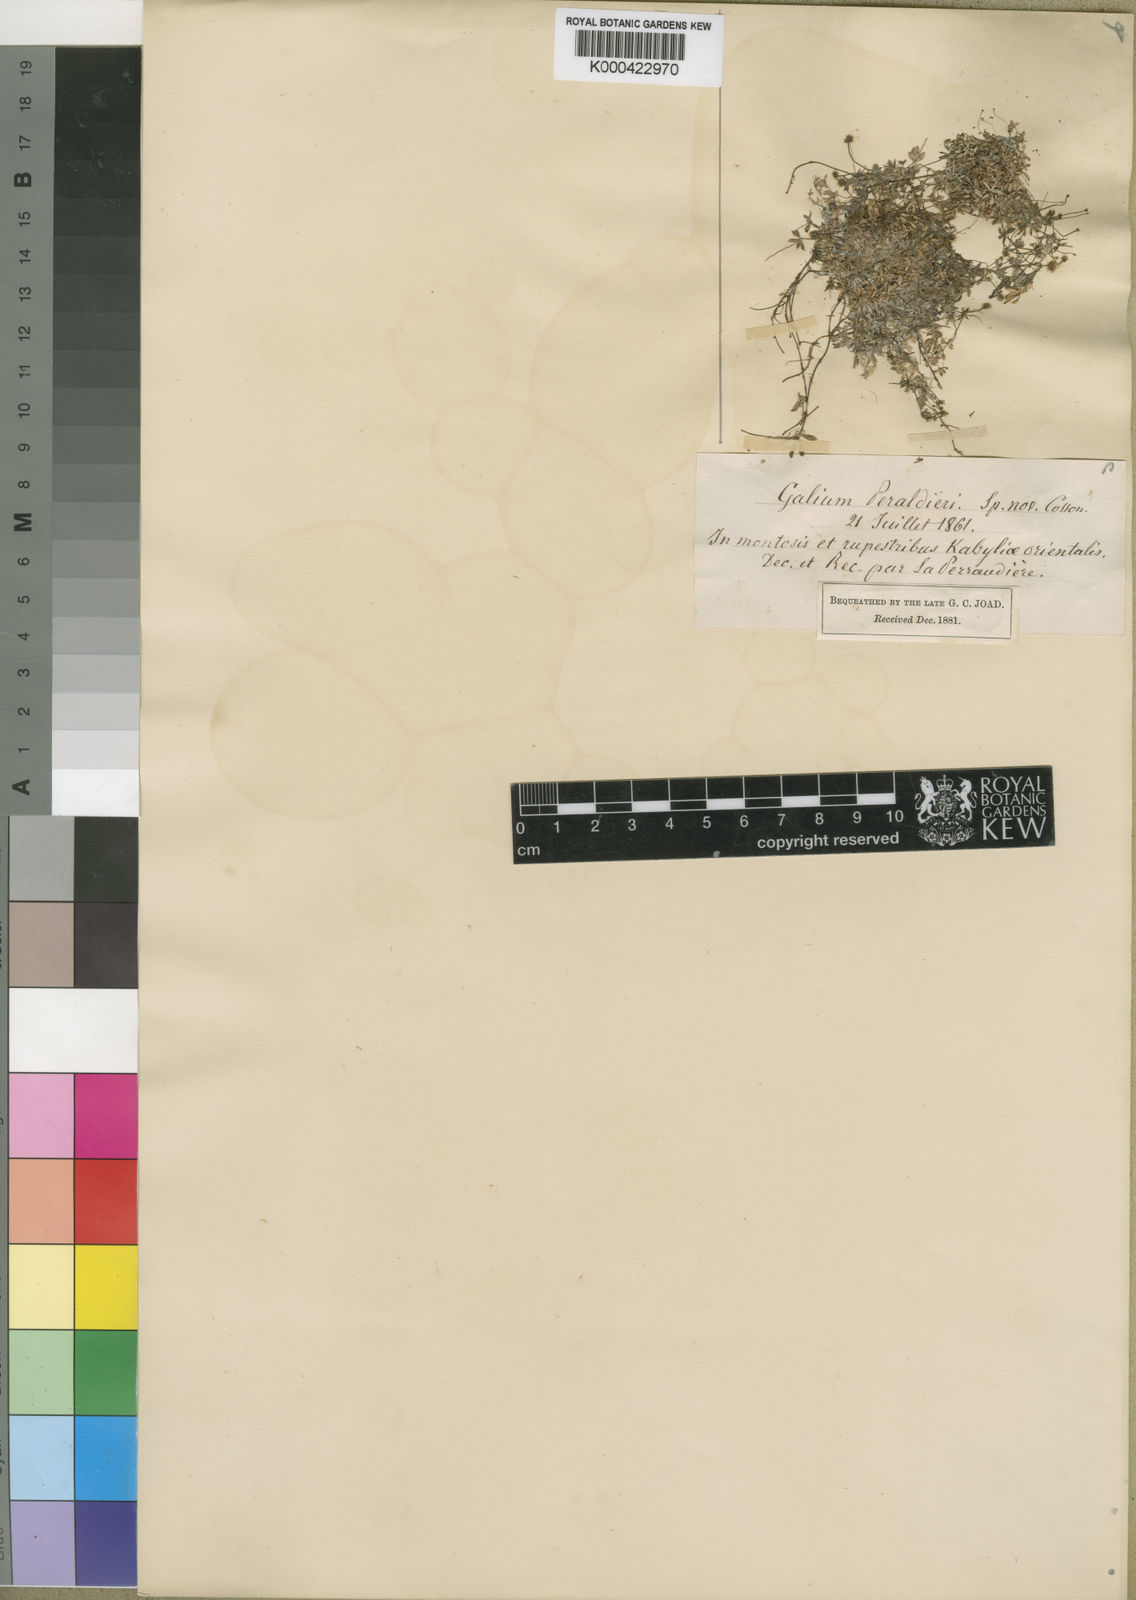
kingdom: Plantae
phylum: Tracheophyta
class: Magnoliopsida
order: Gentianales
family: Rubiaceae
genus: Galium
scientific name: Galium perralderii
